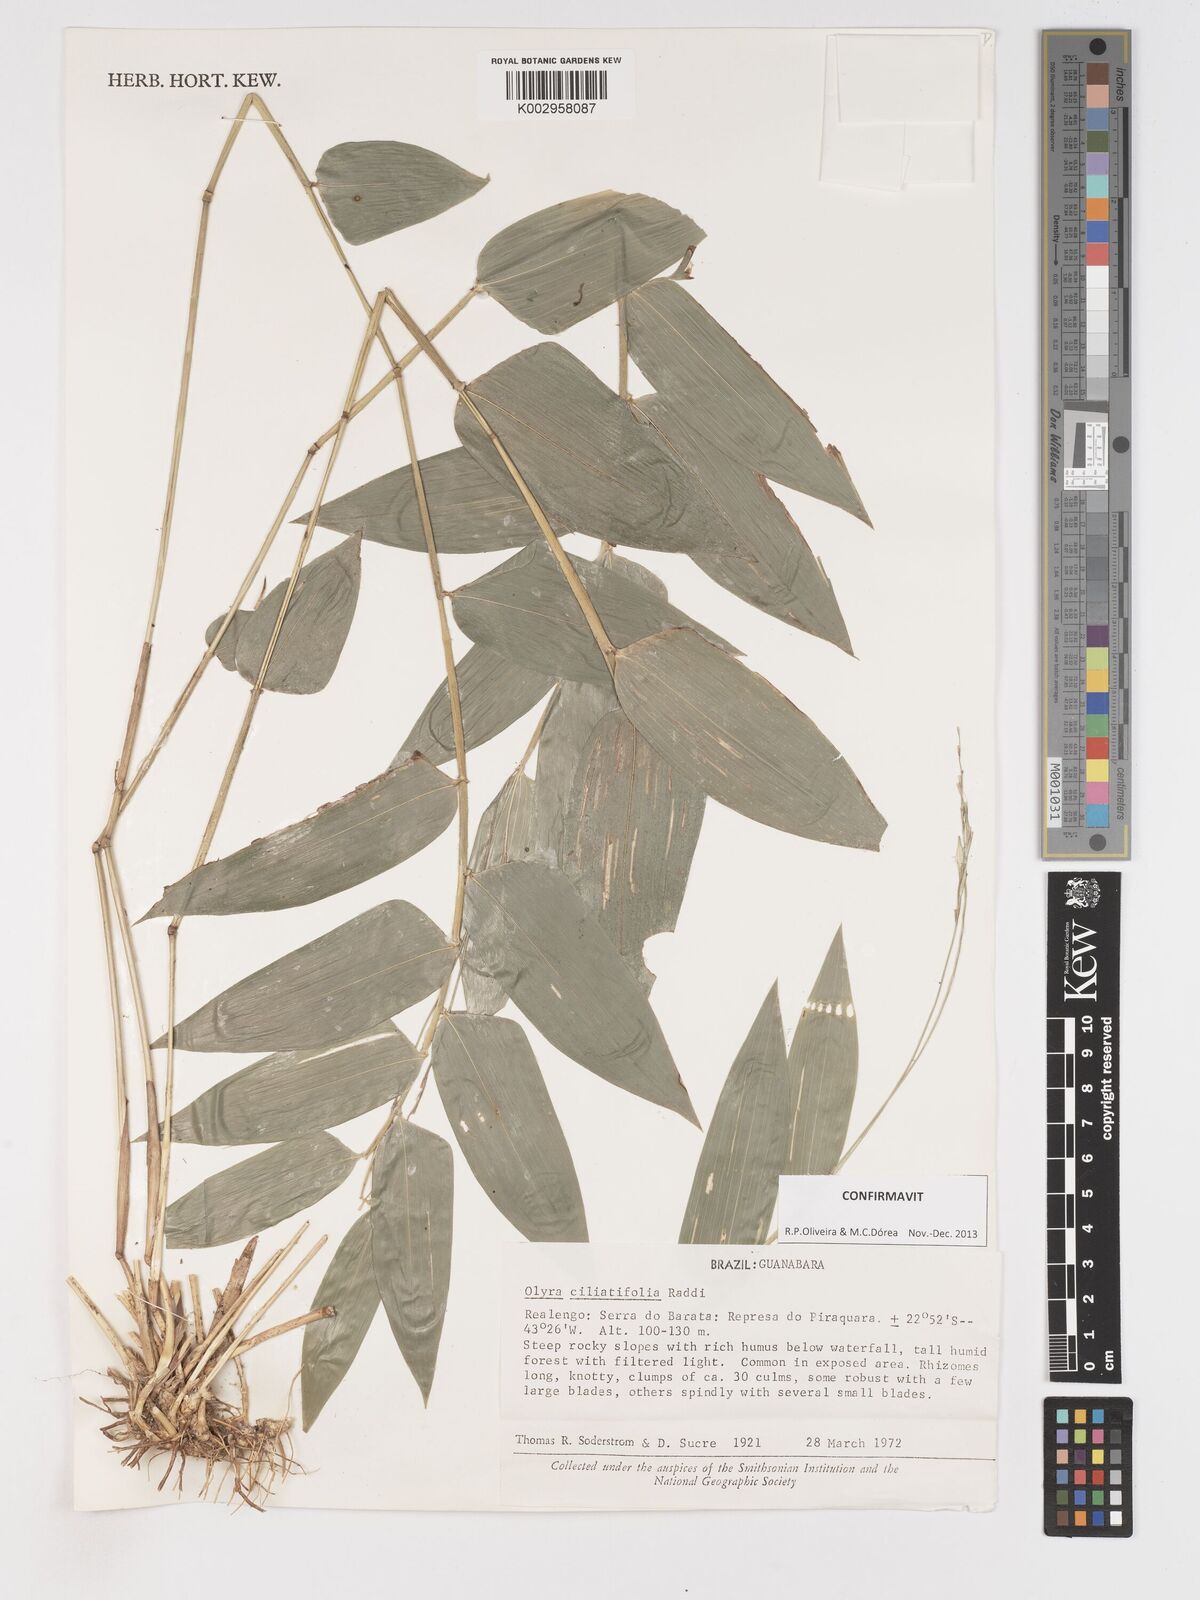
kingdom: Plantae
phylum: Tracheophyta
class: Liliopsida
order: Poales
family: Poaceae
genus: Olyra
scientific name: Olyra ciliatifolia
